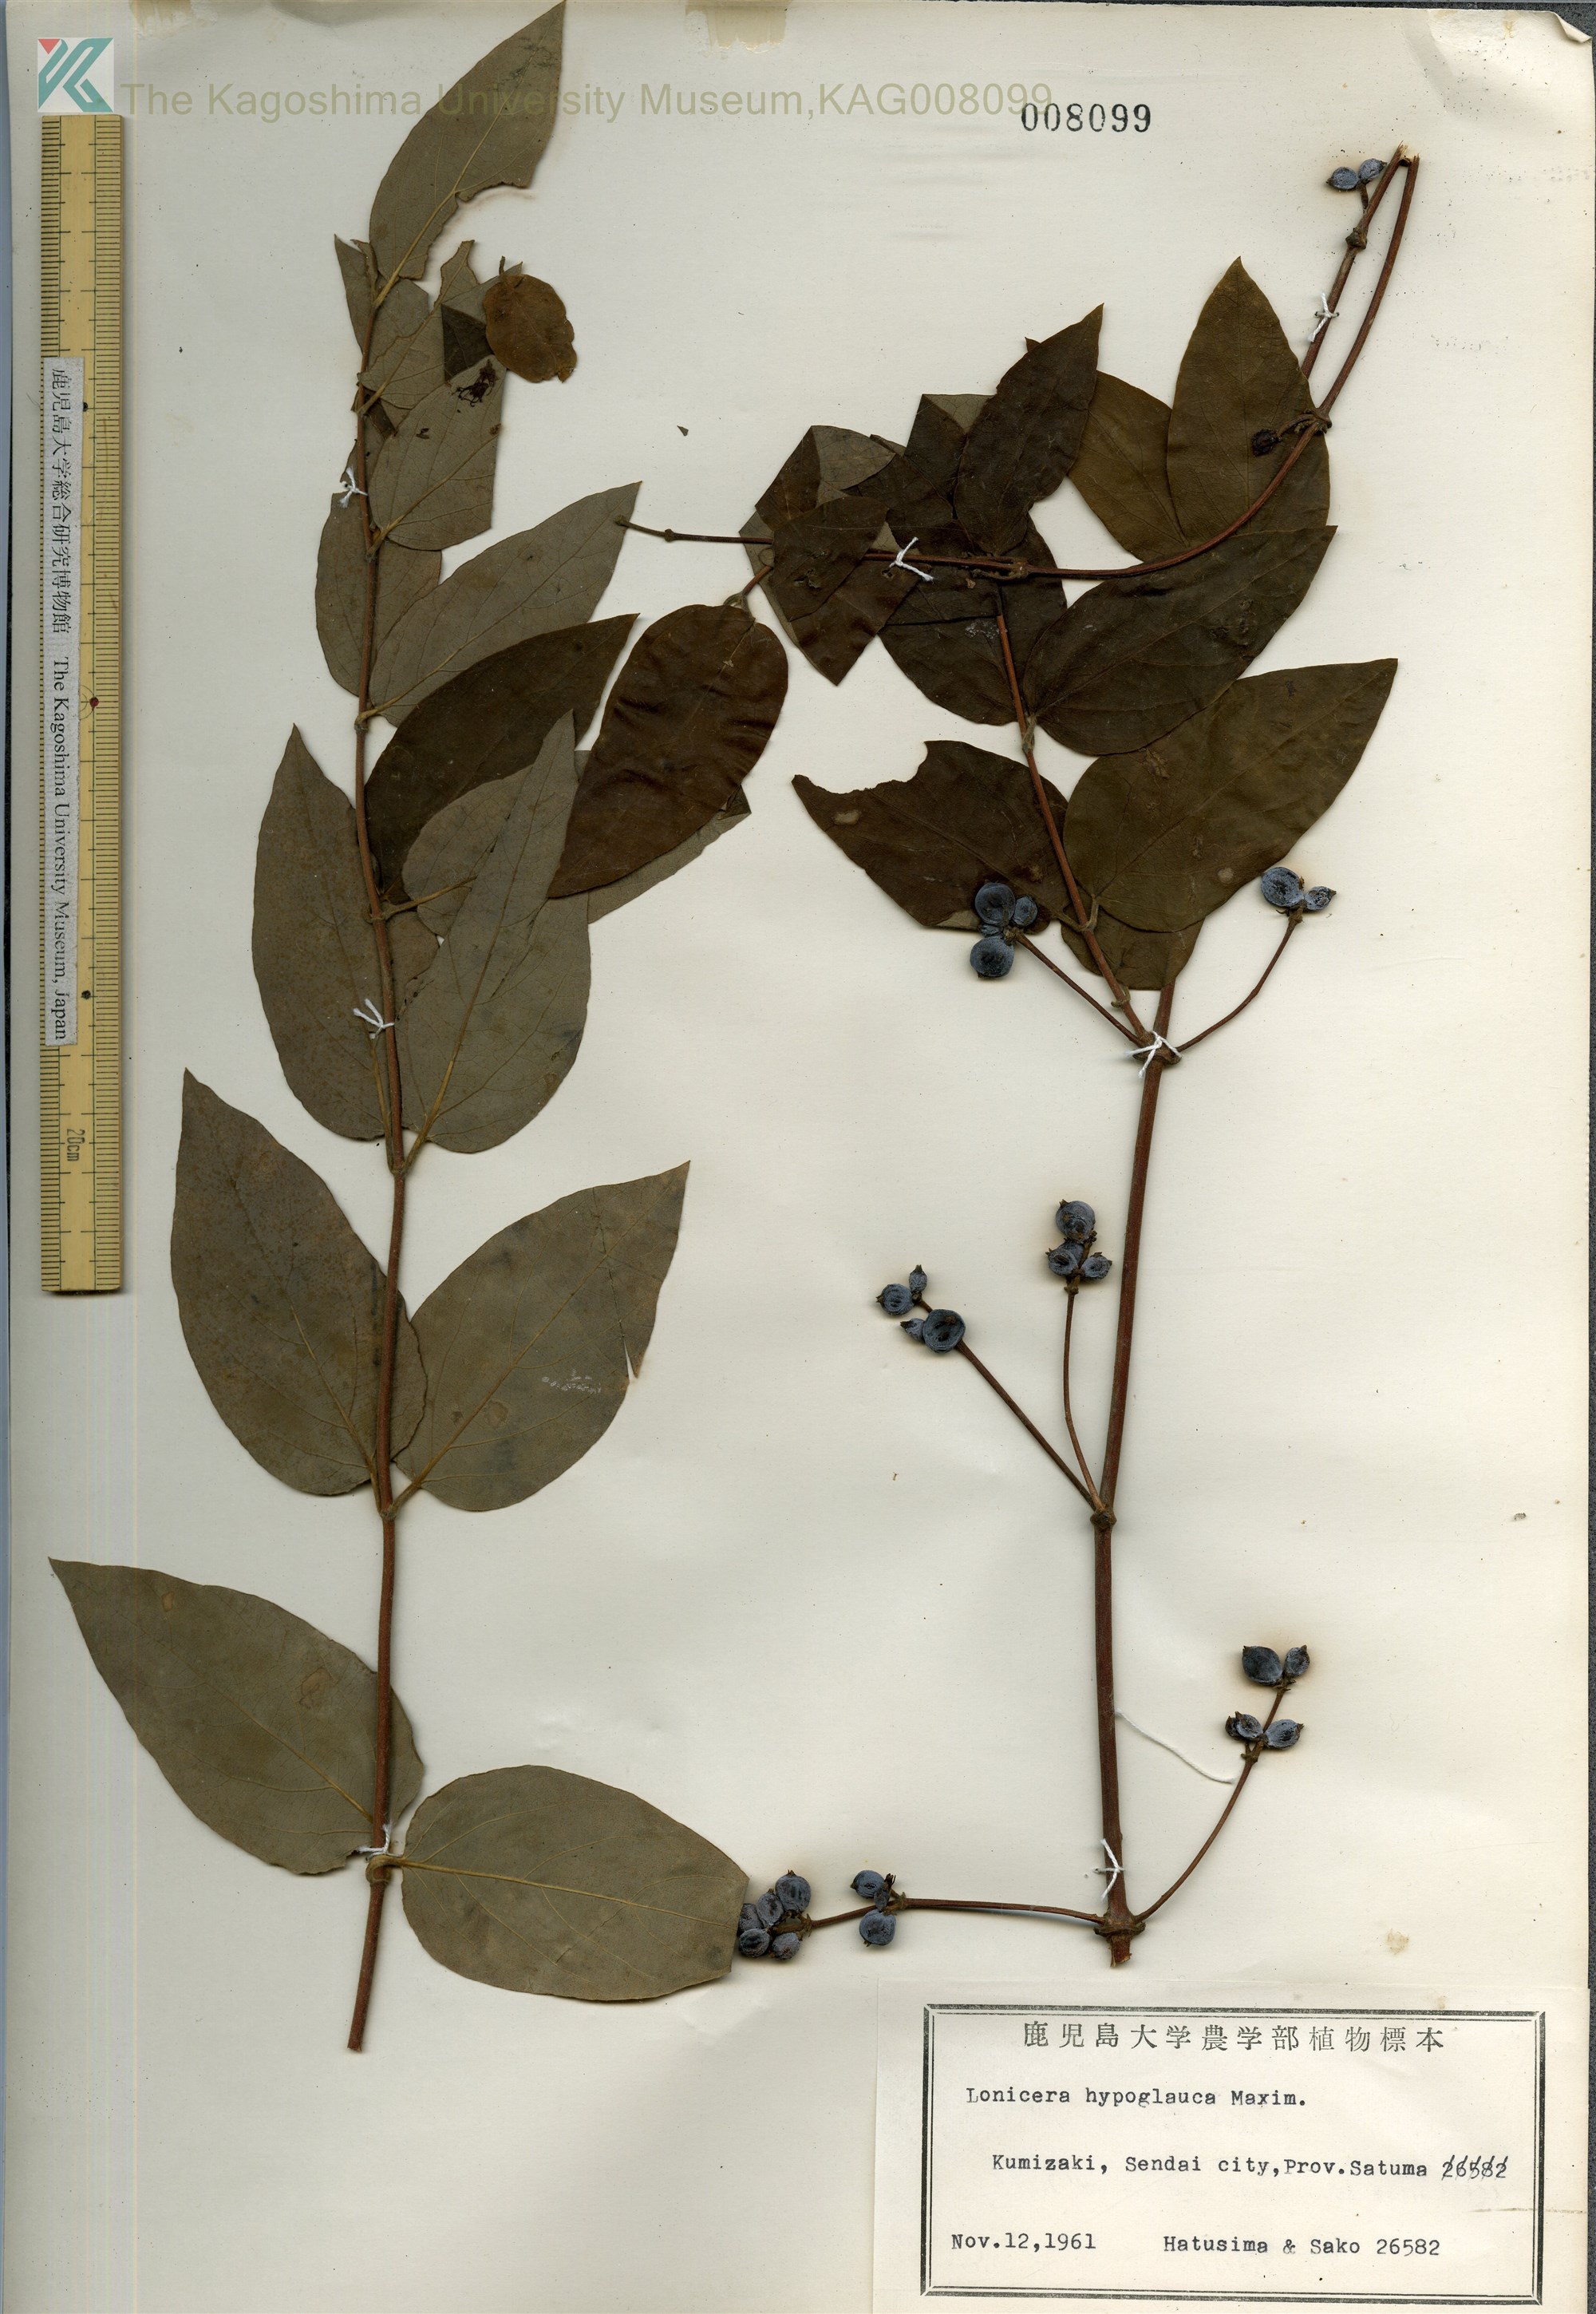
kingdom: Plantae
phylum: Tracheophyta
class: Magnoliopsida
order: Dipsacales
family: Caprifoliaceae
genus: Lonicera
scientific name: Lonicera hypoglauca
